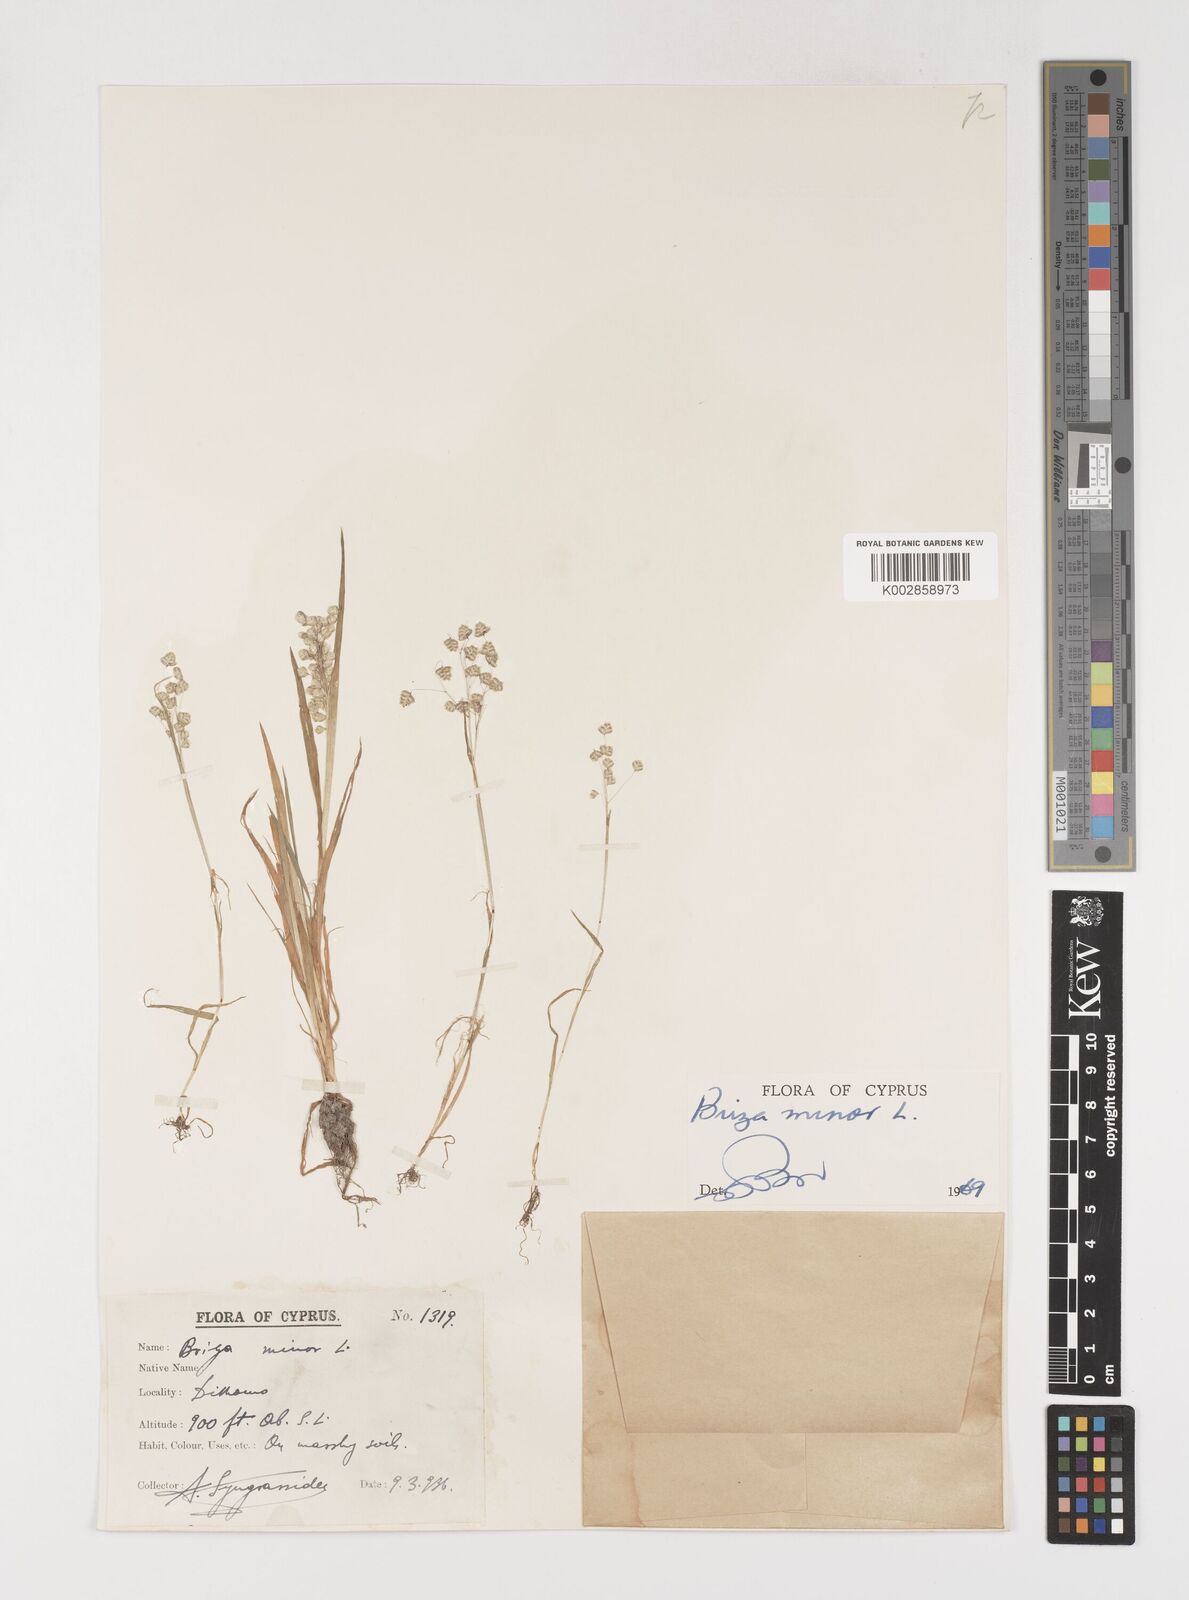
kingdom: Plantae
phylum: Tracheophyta
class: Liliopsida
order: Poales
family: Poaceae
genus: Briza
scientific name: Briza minor
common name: Lesser quaking-grass
